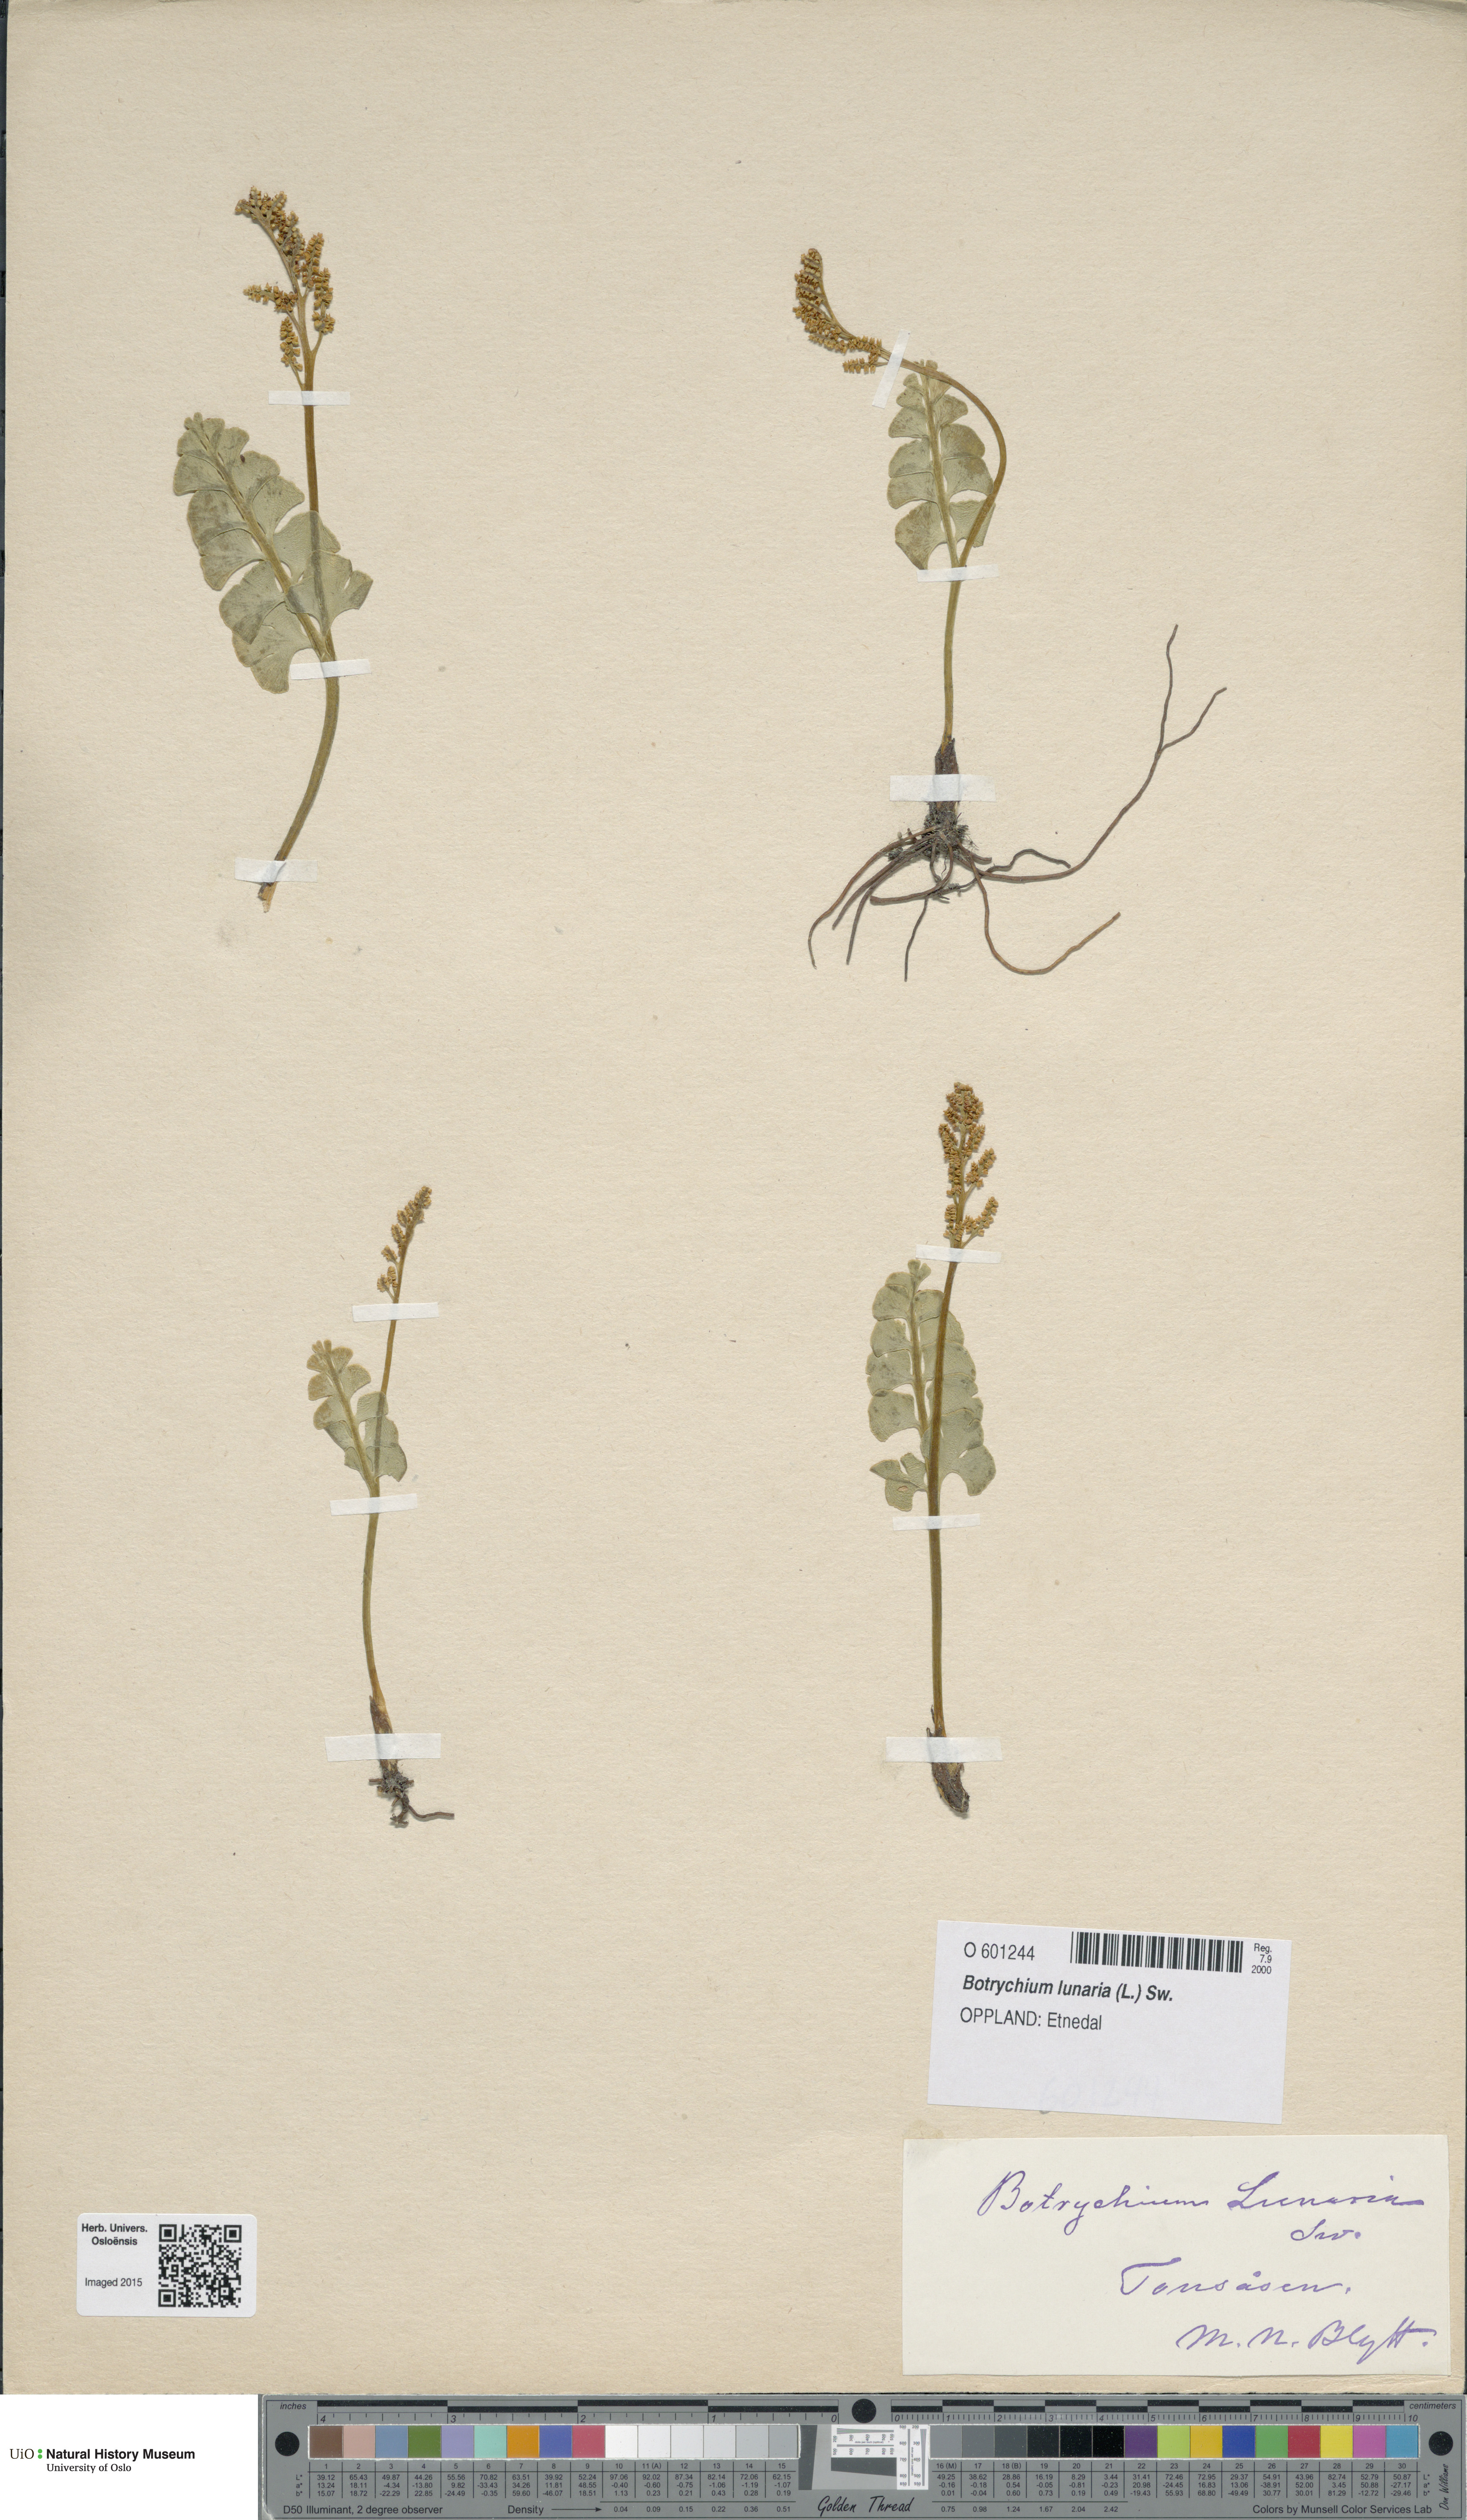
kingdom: Plantae
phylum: Tracheophyta
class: Polypodiopsida
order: Ophioglossales
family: Ophioglossaceae
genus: Botrychium
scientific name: Botrychium lunaria
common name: Moonwort
